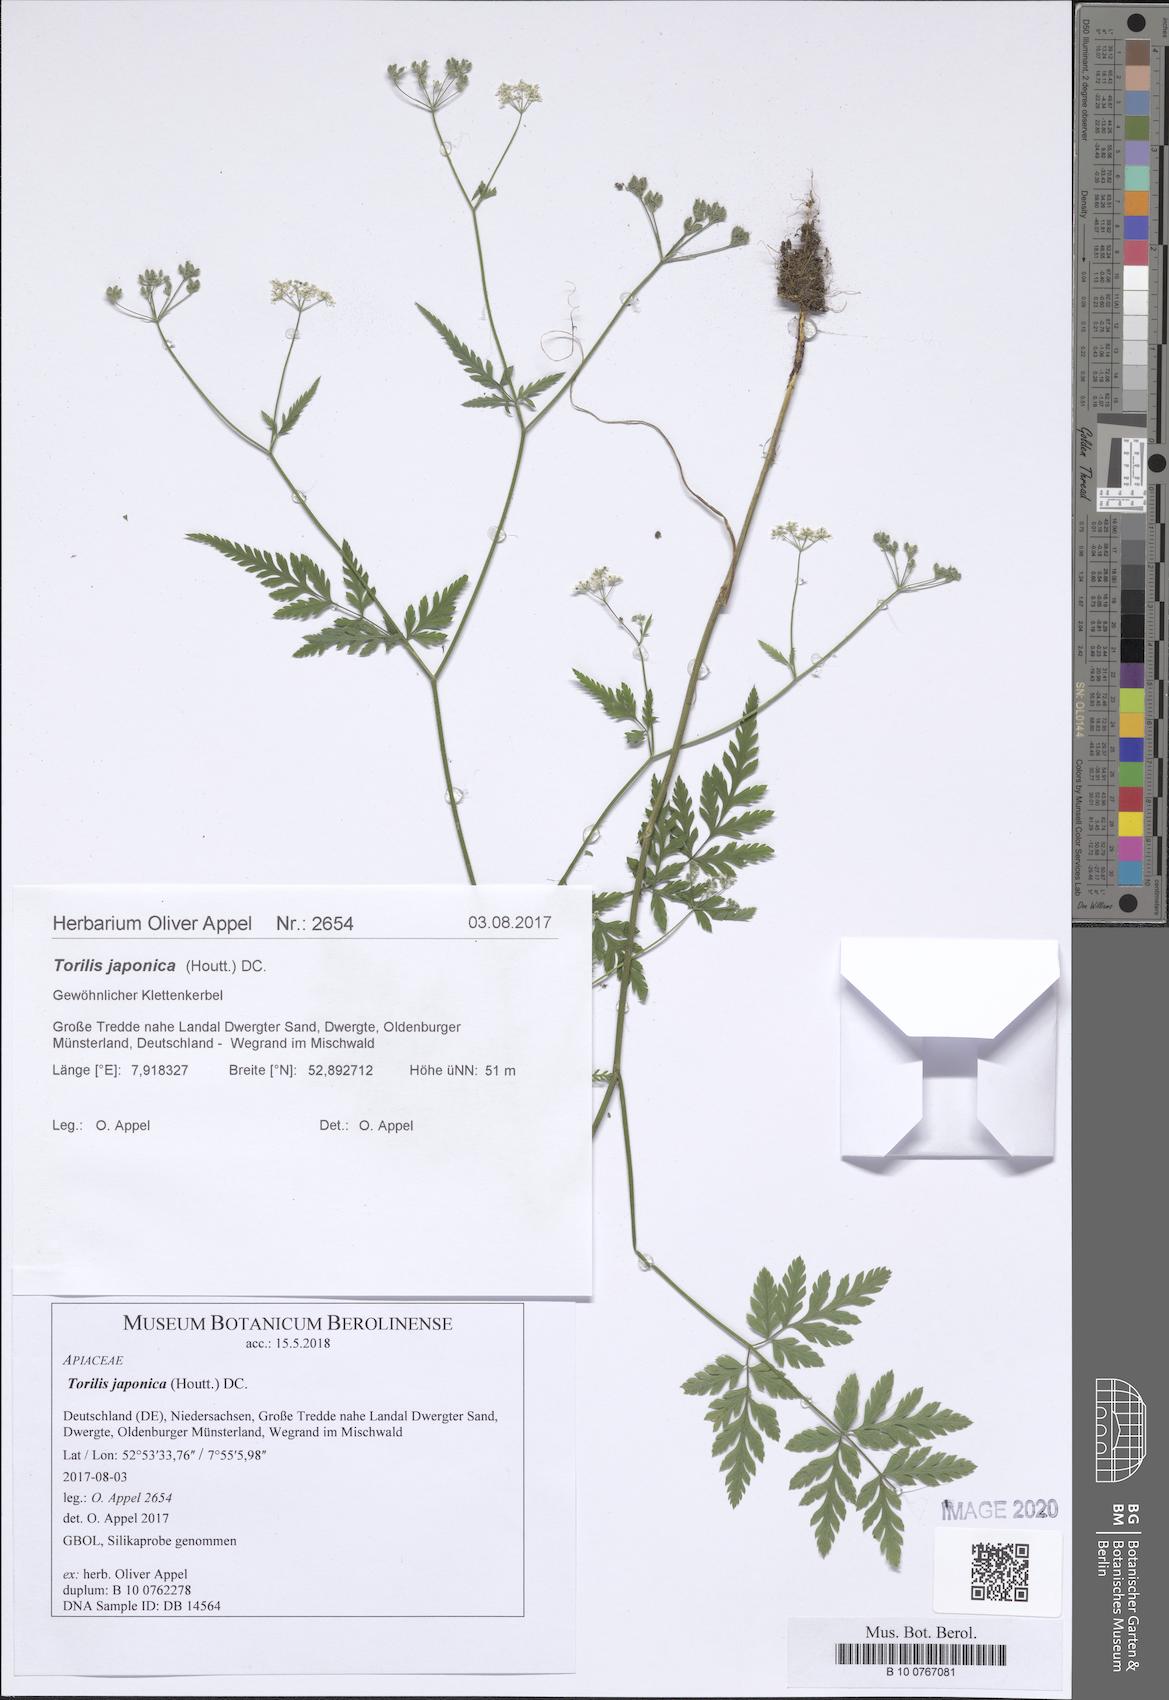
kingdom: Plantae
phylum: Tracheophyta
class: Polypodiopsida
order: Equisetales
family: Equisetaceae
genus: Equisetum
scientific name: Equisetum ramosissimum
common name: Branched horsetail
